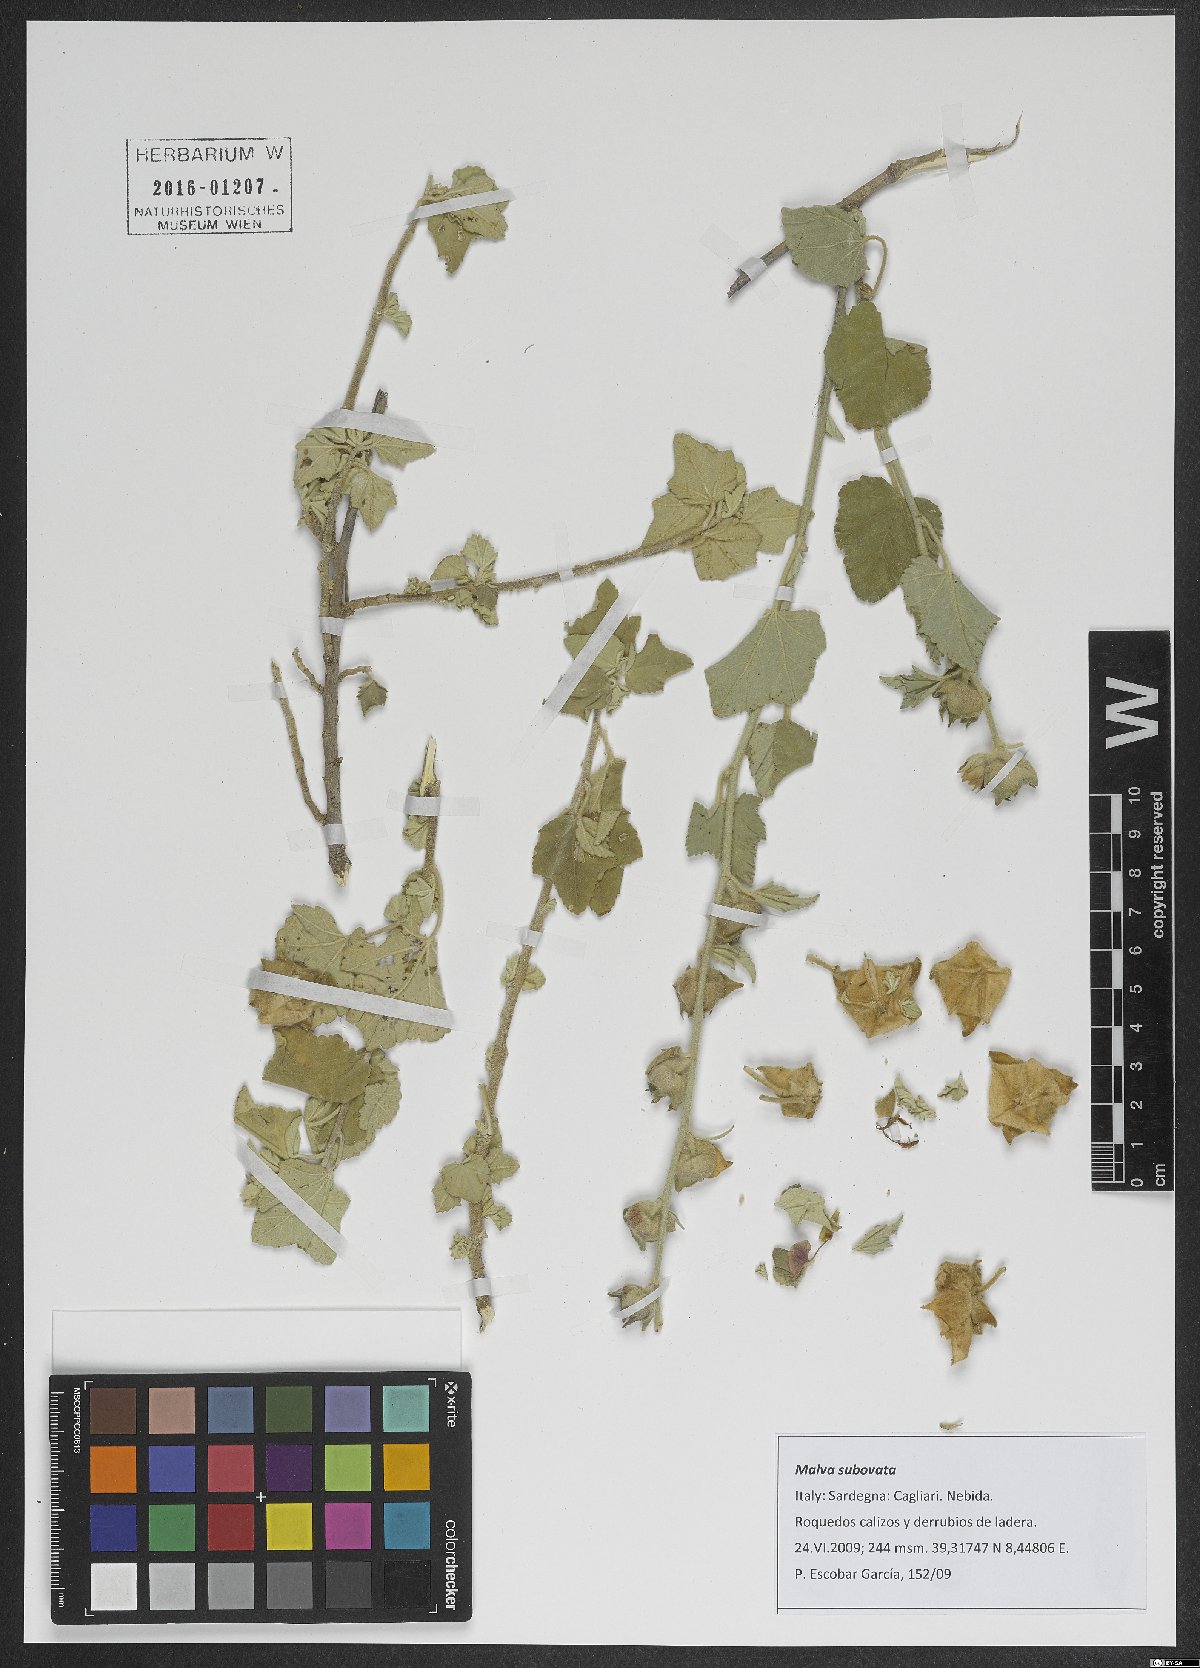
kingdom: Plantae
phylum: Tracheophyta
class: Magnoliopsida
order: Malvales
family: Malvaceae
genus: Malva
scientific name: Malva subovata
